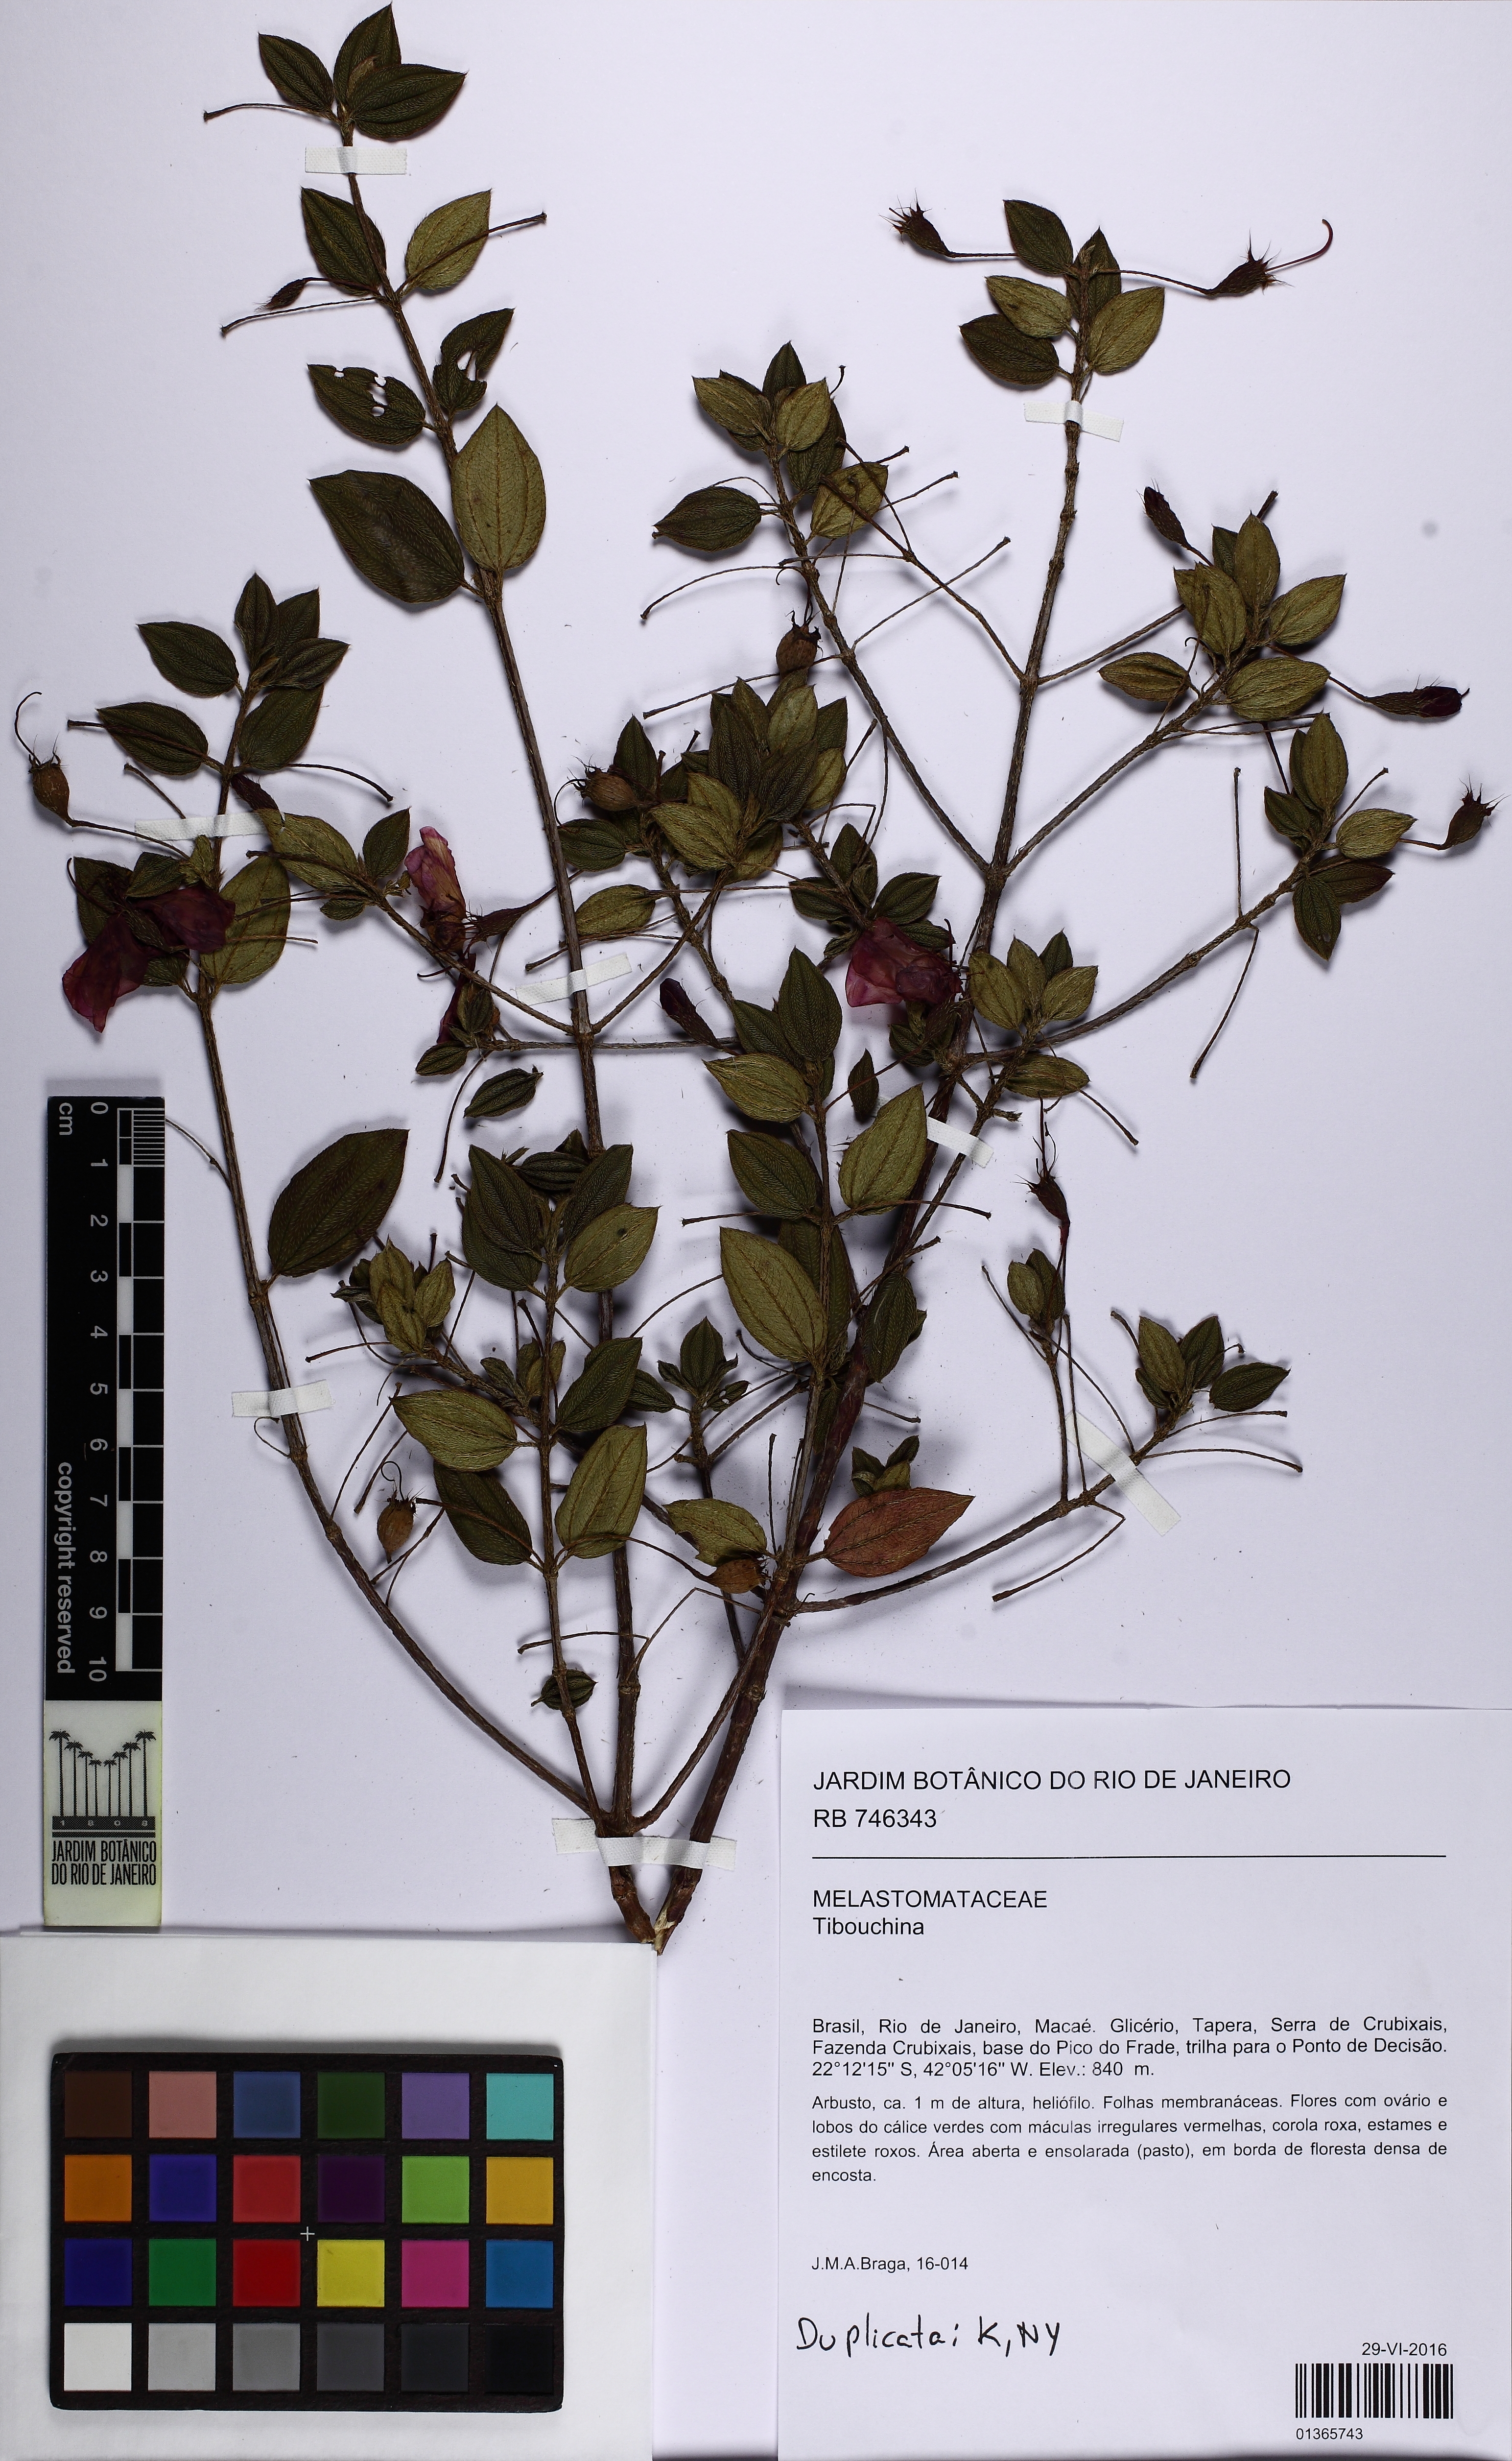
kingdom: Plantae
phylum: Tracheophyta
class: Magnoliopsida
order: Myrtales
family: Melastomataceae
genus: Pleroma
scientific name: Pleroma axillare
